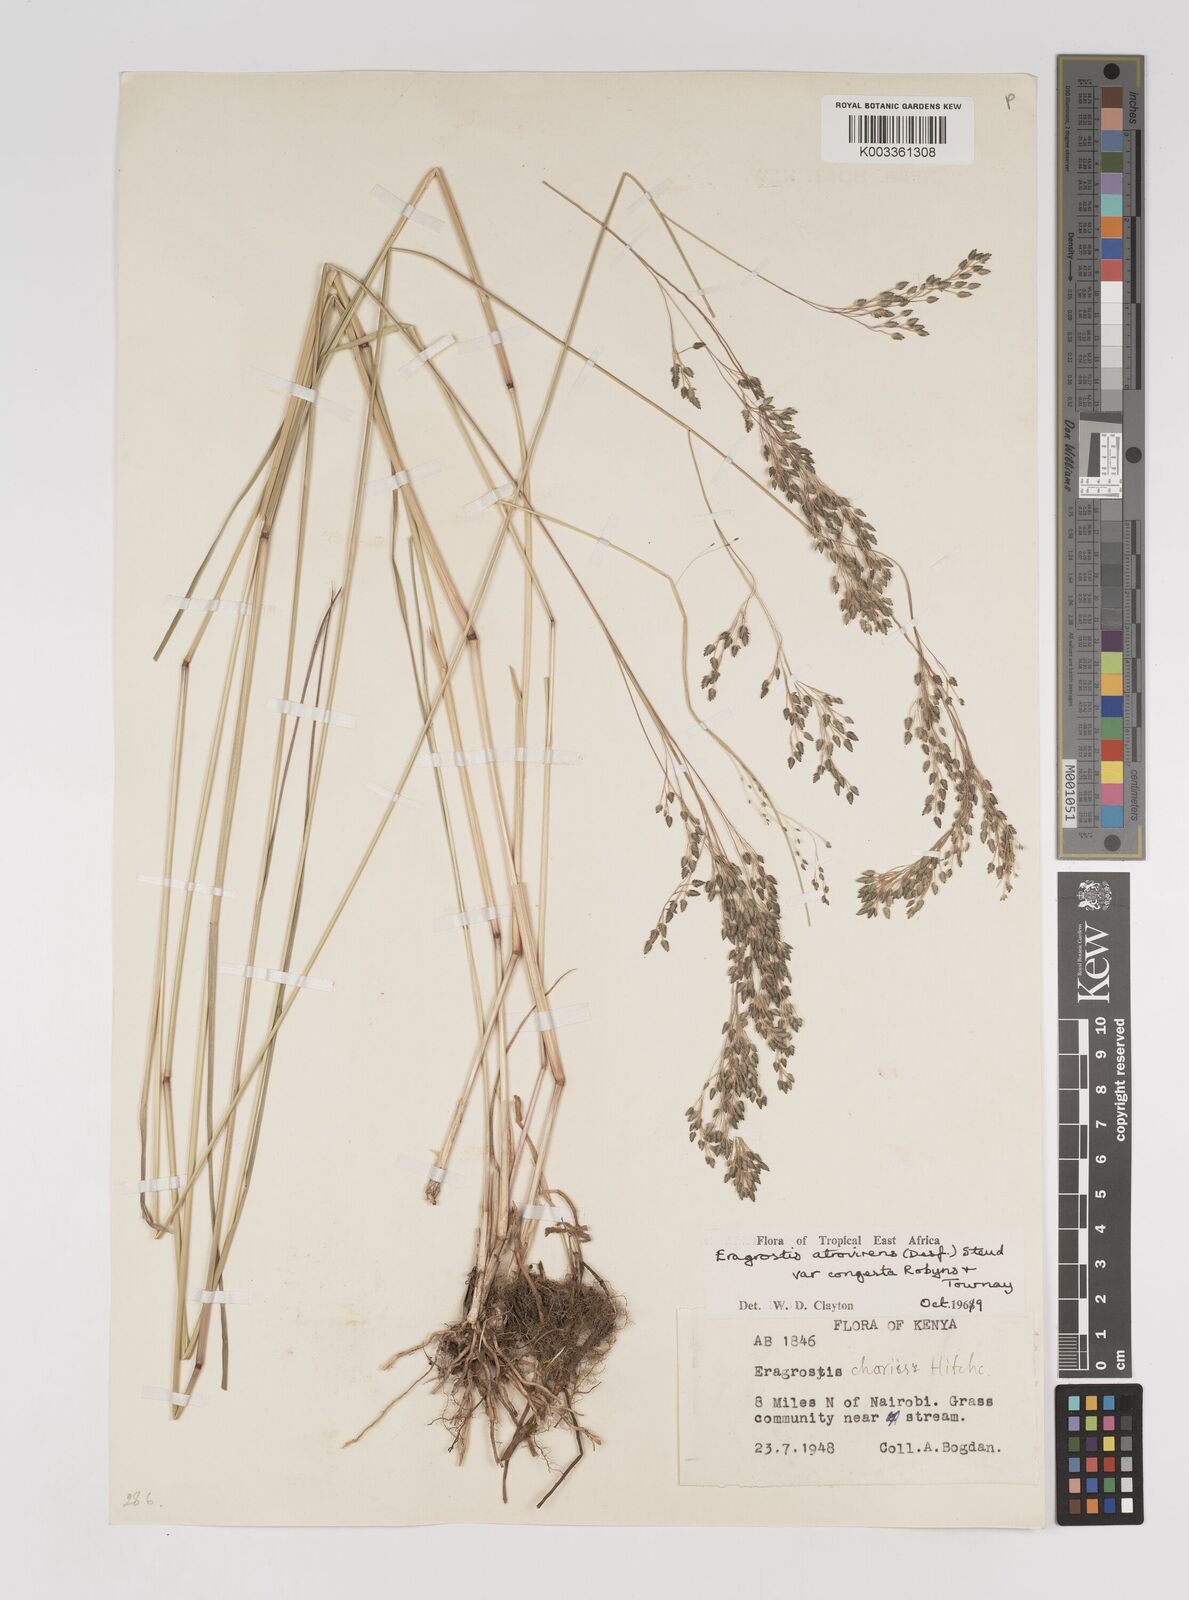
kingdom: Plantae
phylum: Tracheophyta
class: Liliopsida
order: Poales
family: Poaceae
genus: Eragrostis
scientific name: Eragrostis botryodes
